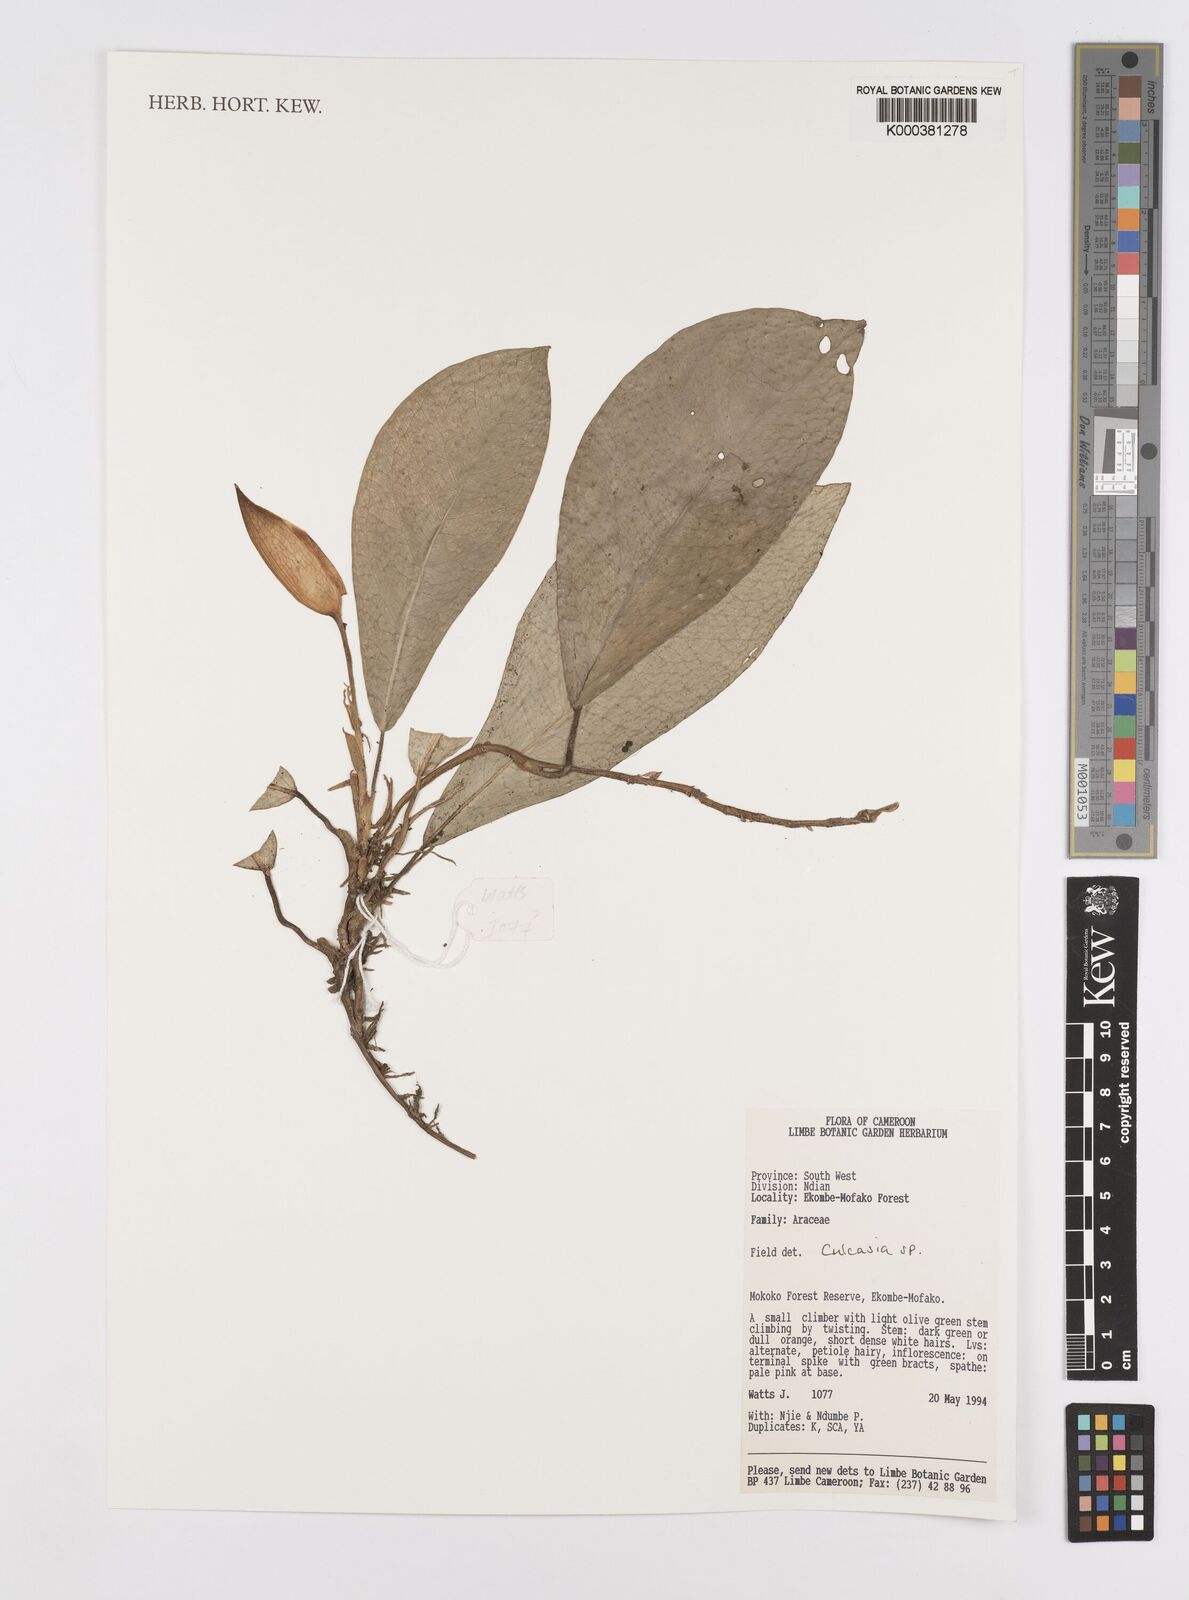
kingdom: Plantae
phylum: Tracheophyta
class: Liliopsida
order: Alismatales
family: Araceae
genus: Culcasia
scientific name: Culcasia
